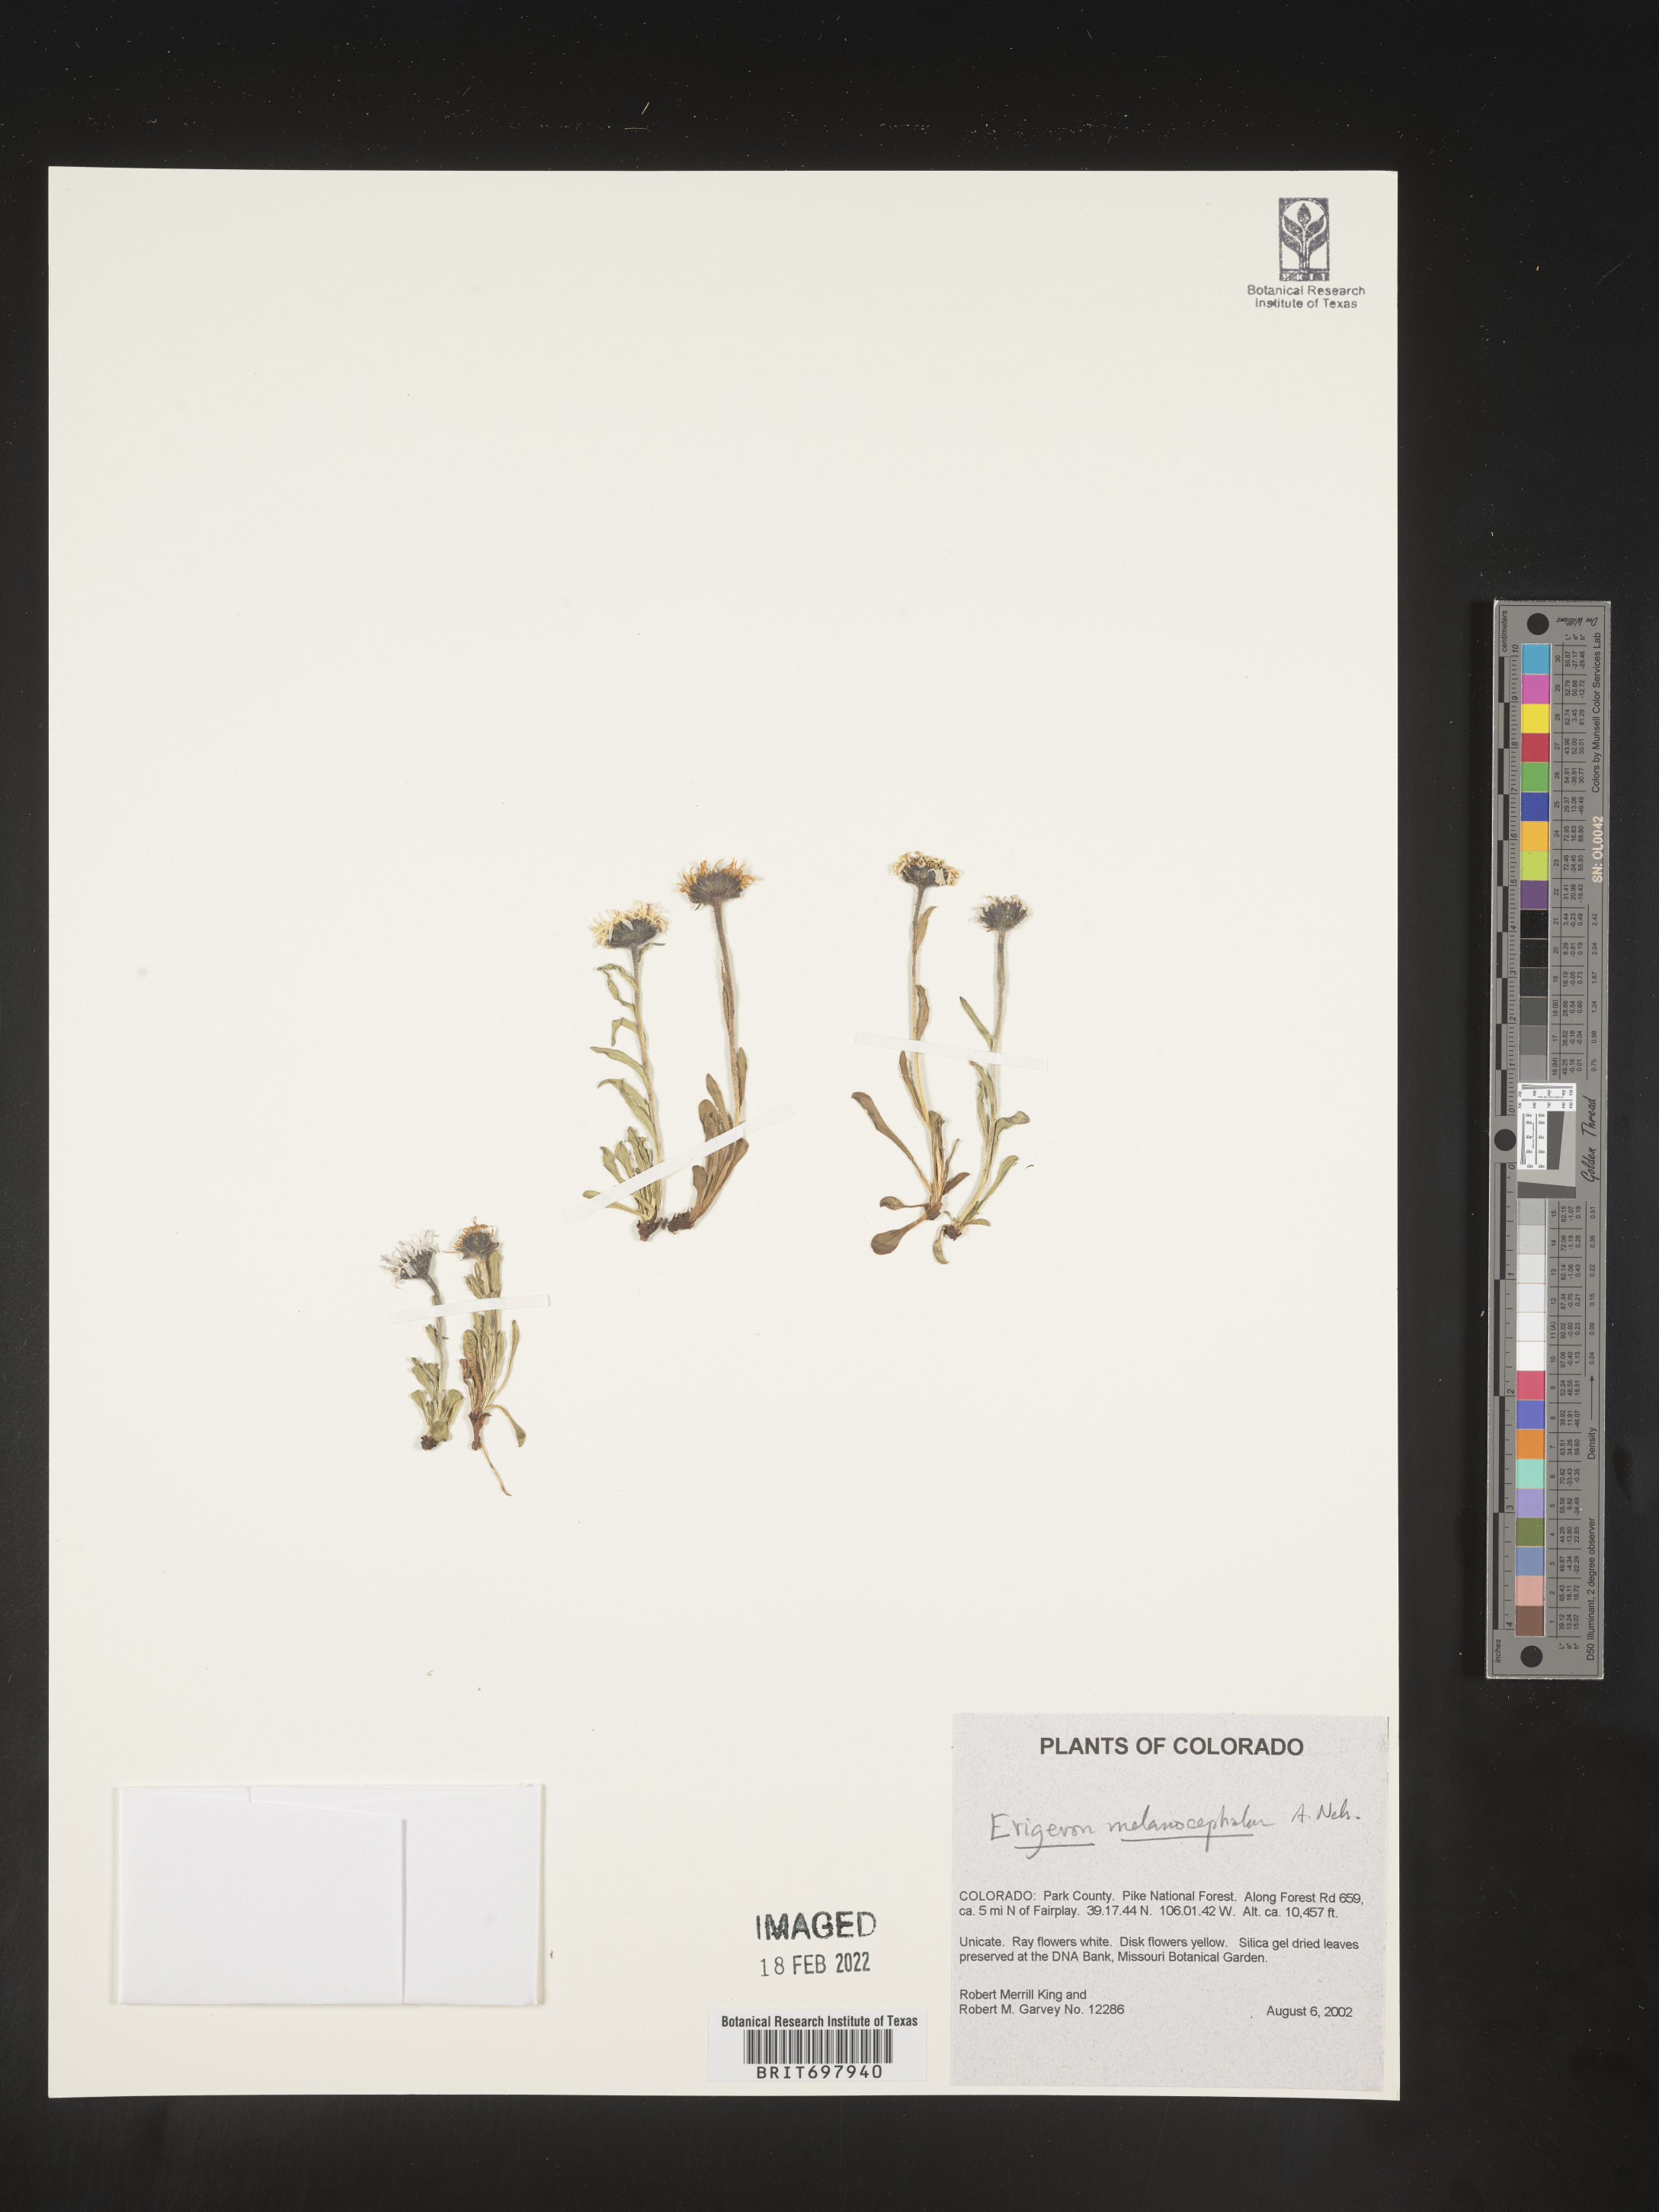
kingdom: Plantae
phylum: Tracheophyta
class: Magnoliopsida
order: Asterales
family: Asteraceae
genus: Erigeron
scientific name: Erigeron melanocephalus
